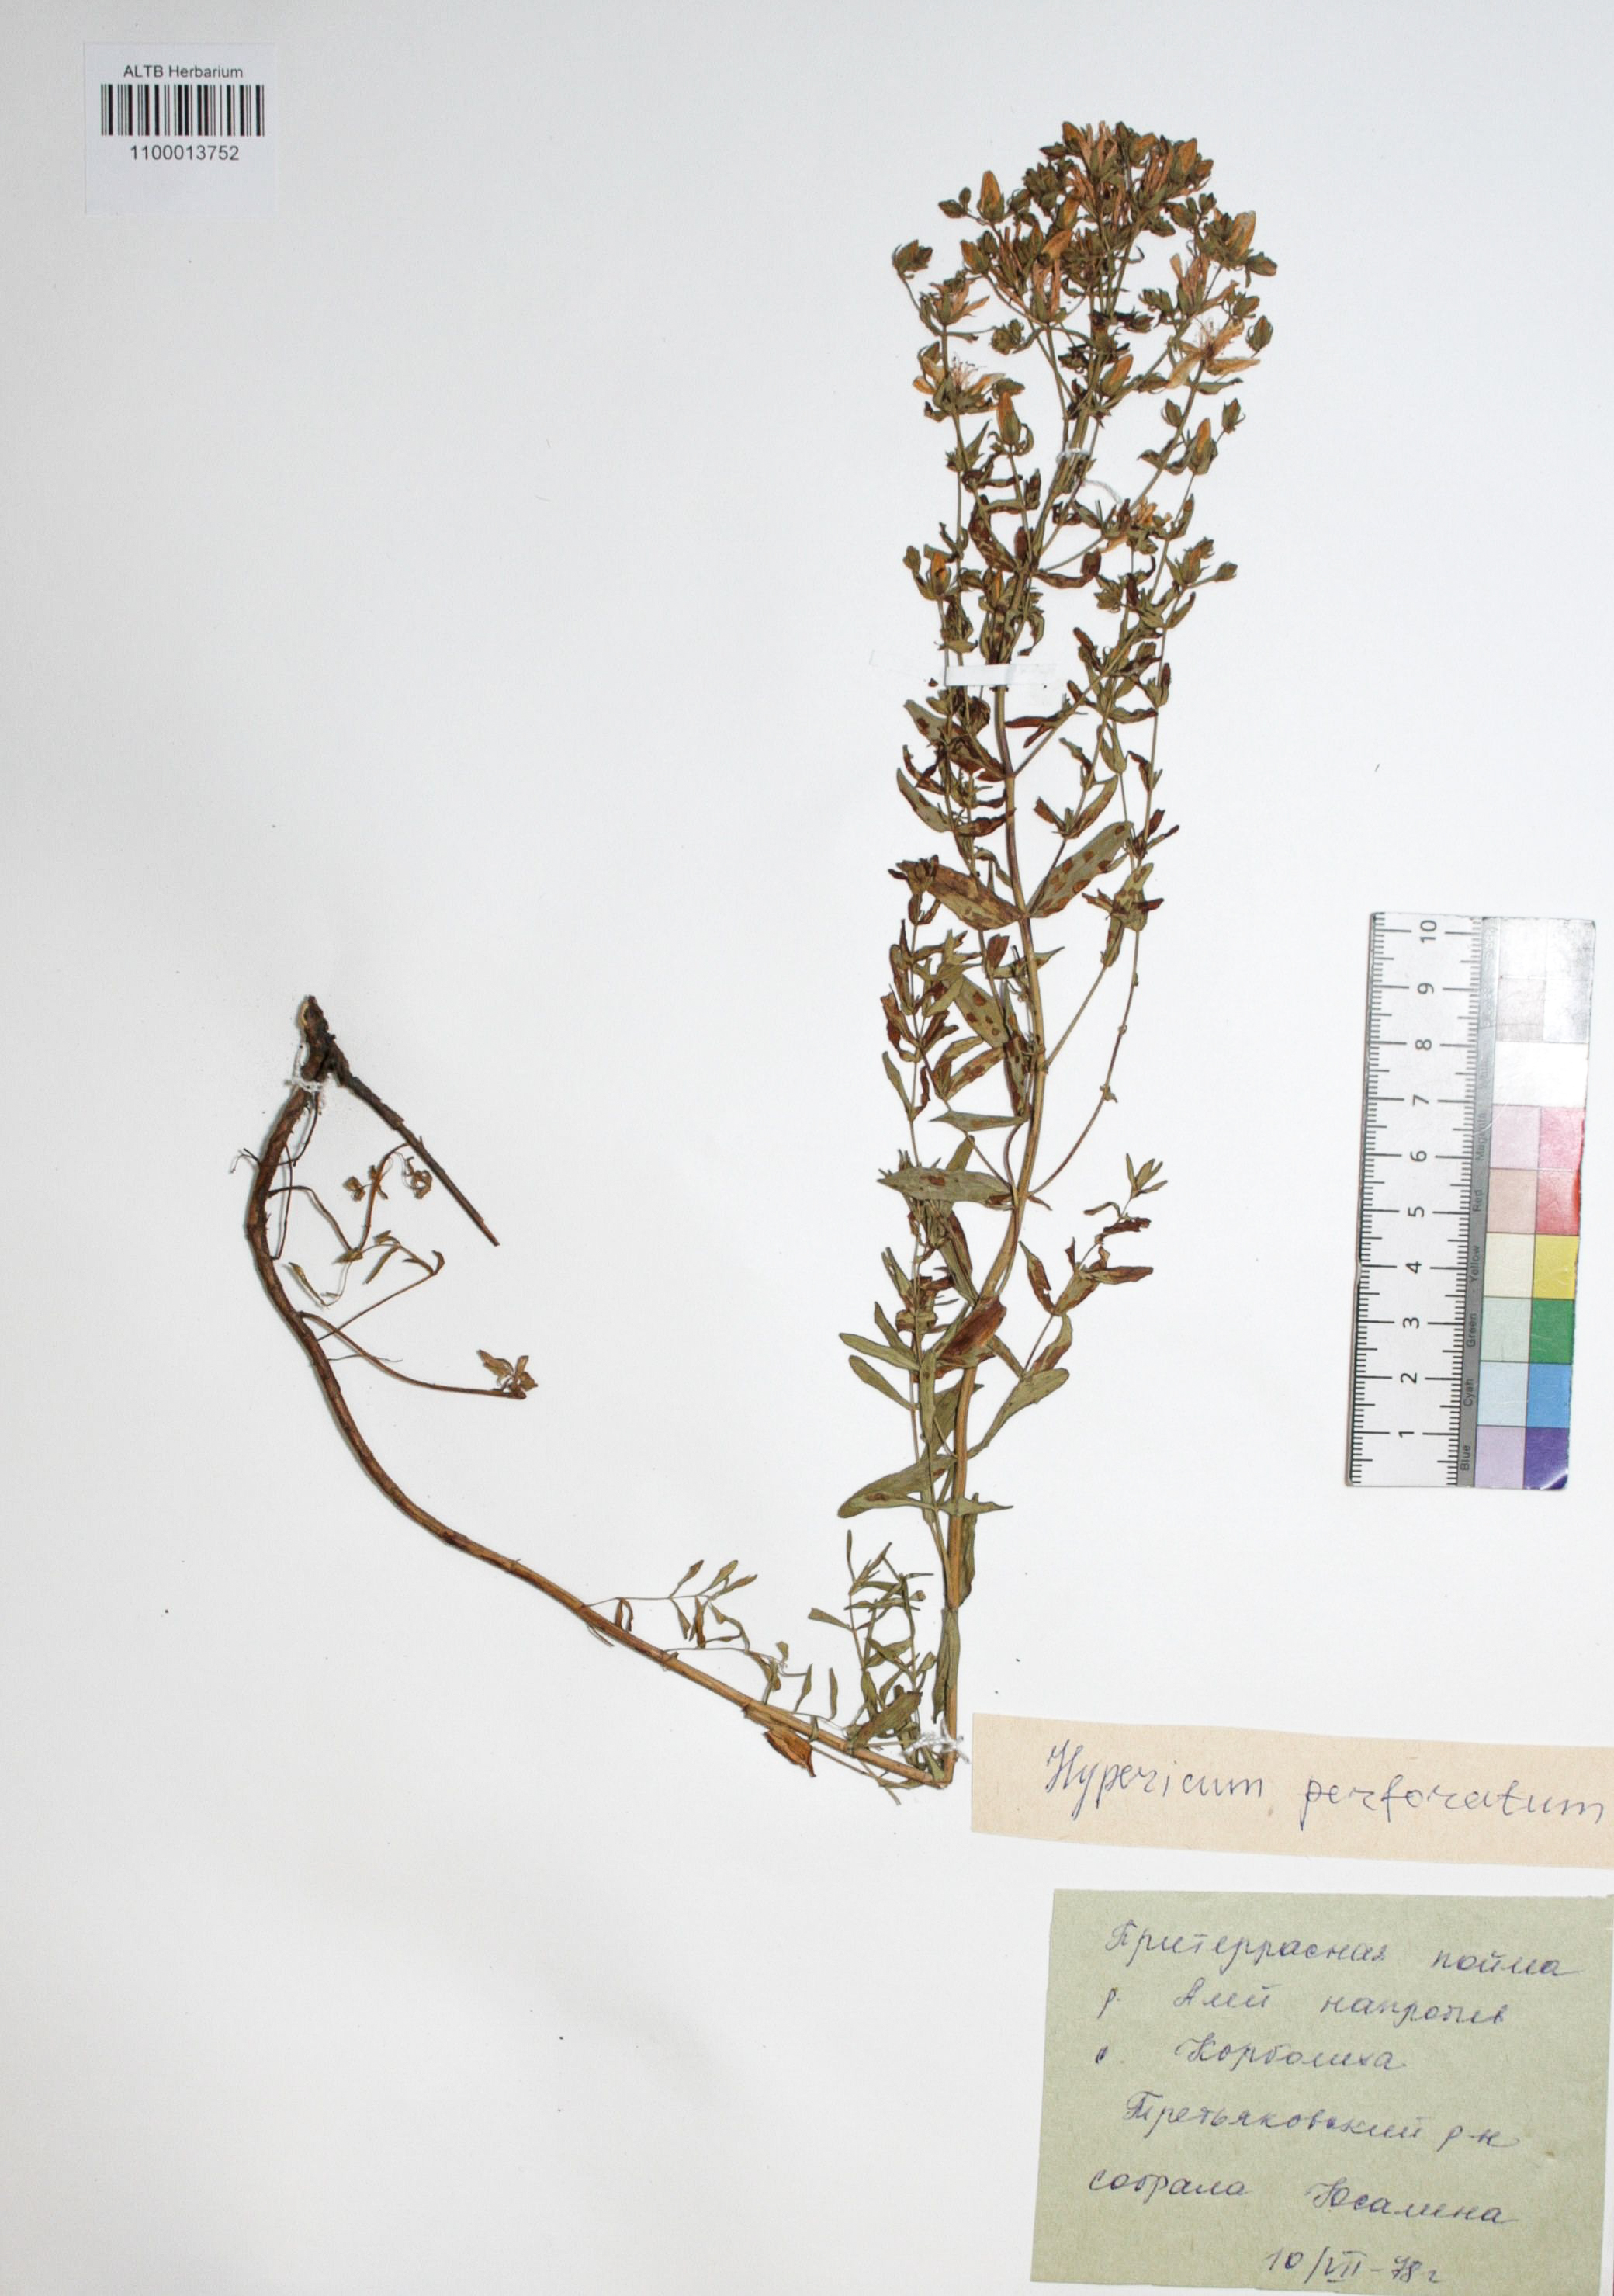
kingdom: Plantae
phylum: Tracheophyta
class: Magnoliopsida
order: Malpighiales
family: Hypericaceae
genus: Hypericum
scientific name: Hypericum perforatum
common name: Common st. johnswort
